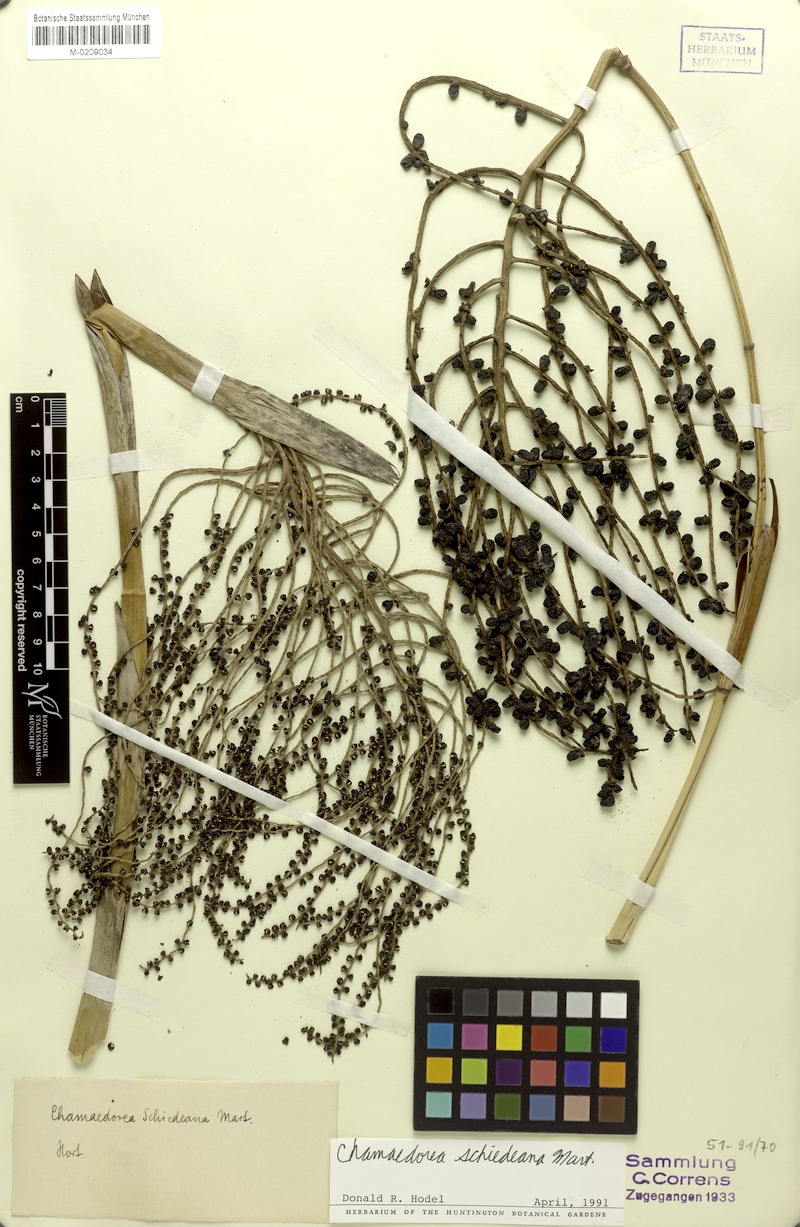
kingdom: Plantae
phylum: Tracheophyta
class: Liliopsida
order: Arecales
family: Arecaceae
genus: Chamaedorea
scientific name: Chamaedorea schiedeana
